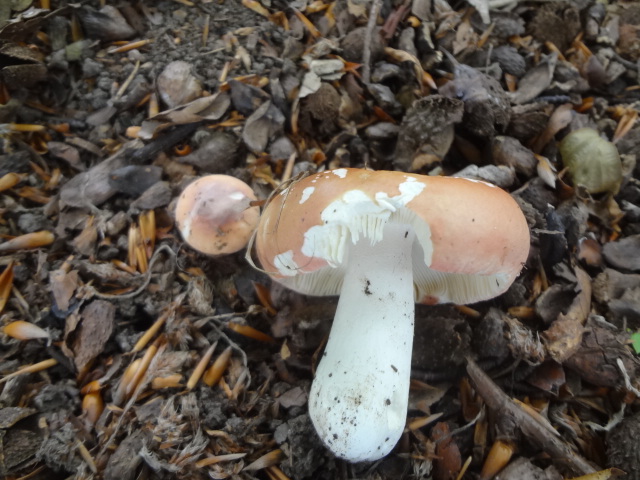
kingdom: Fungi
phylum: Basidiomycota
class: Agaricomycetes
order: Russulales
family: Russulaceae
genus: Russula
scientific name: Russula aurora
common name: rosa skørhat
